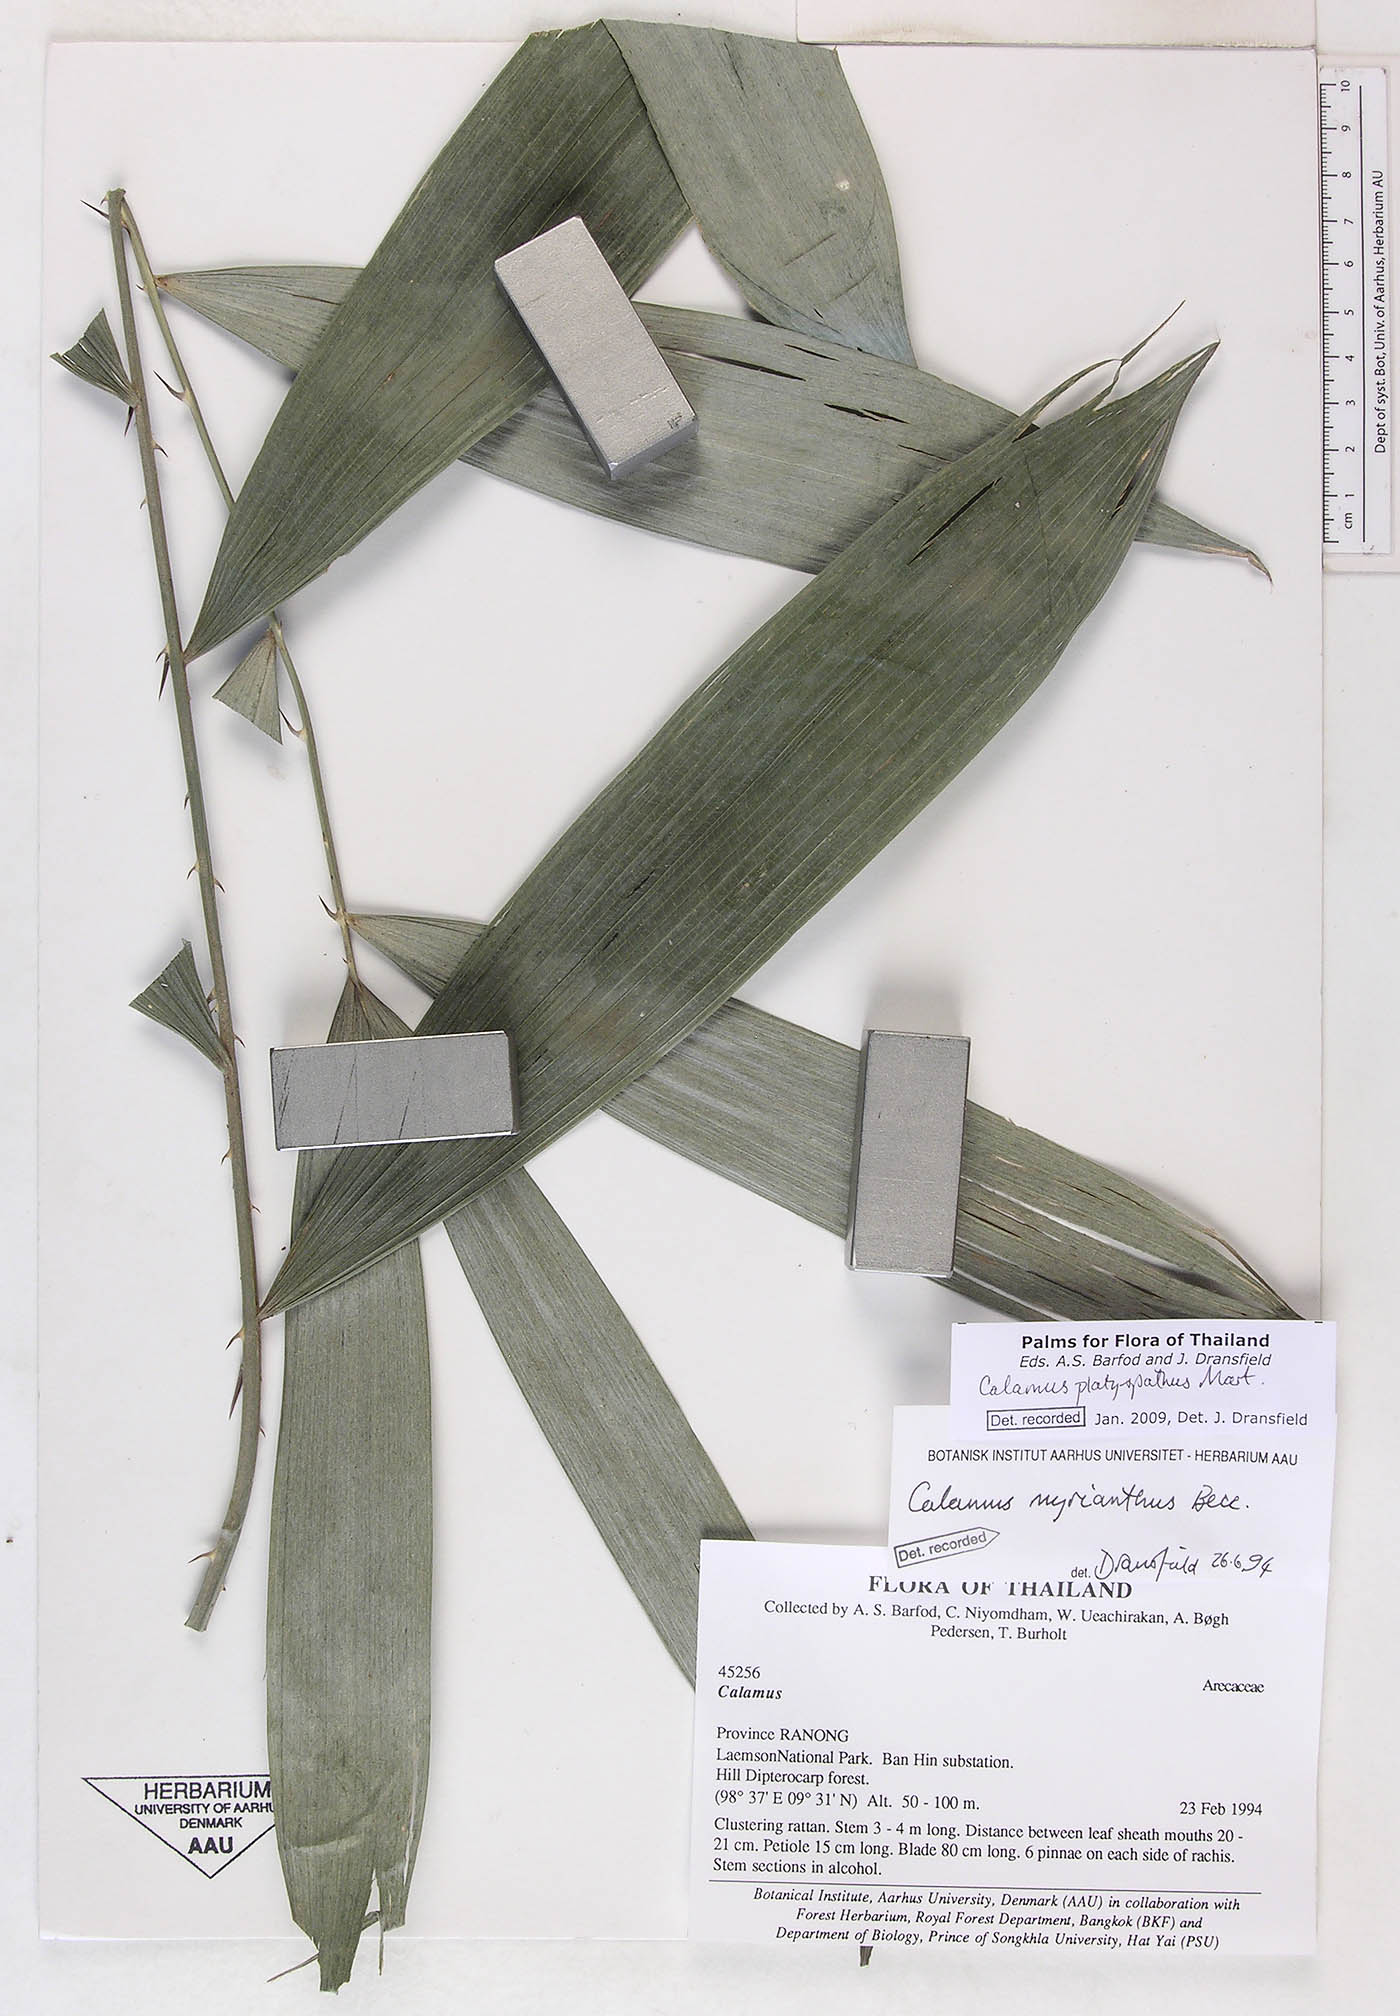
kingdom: Plantae
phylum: Tracheophyta
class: Liliopsida
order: Arecales
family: Arecaceae
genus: Calamus
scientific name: Calamus inermis
